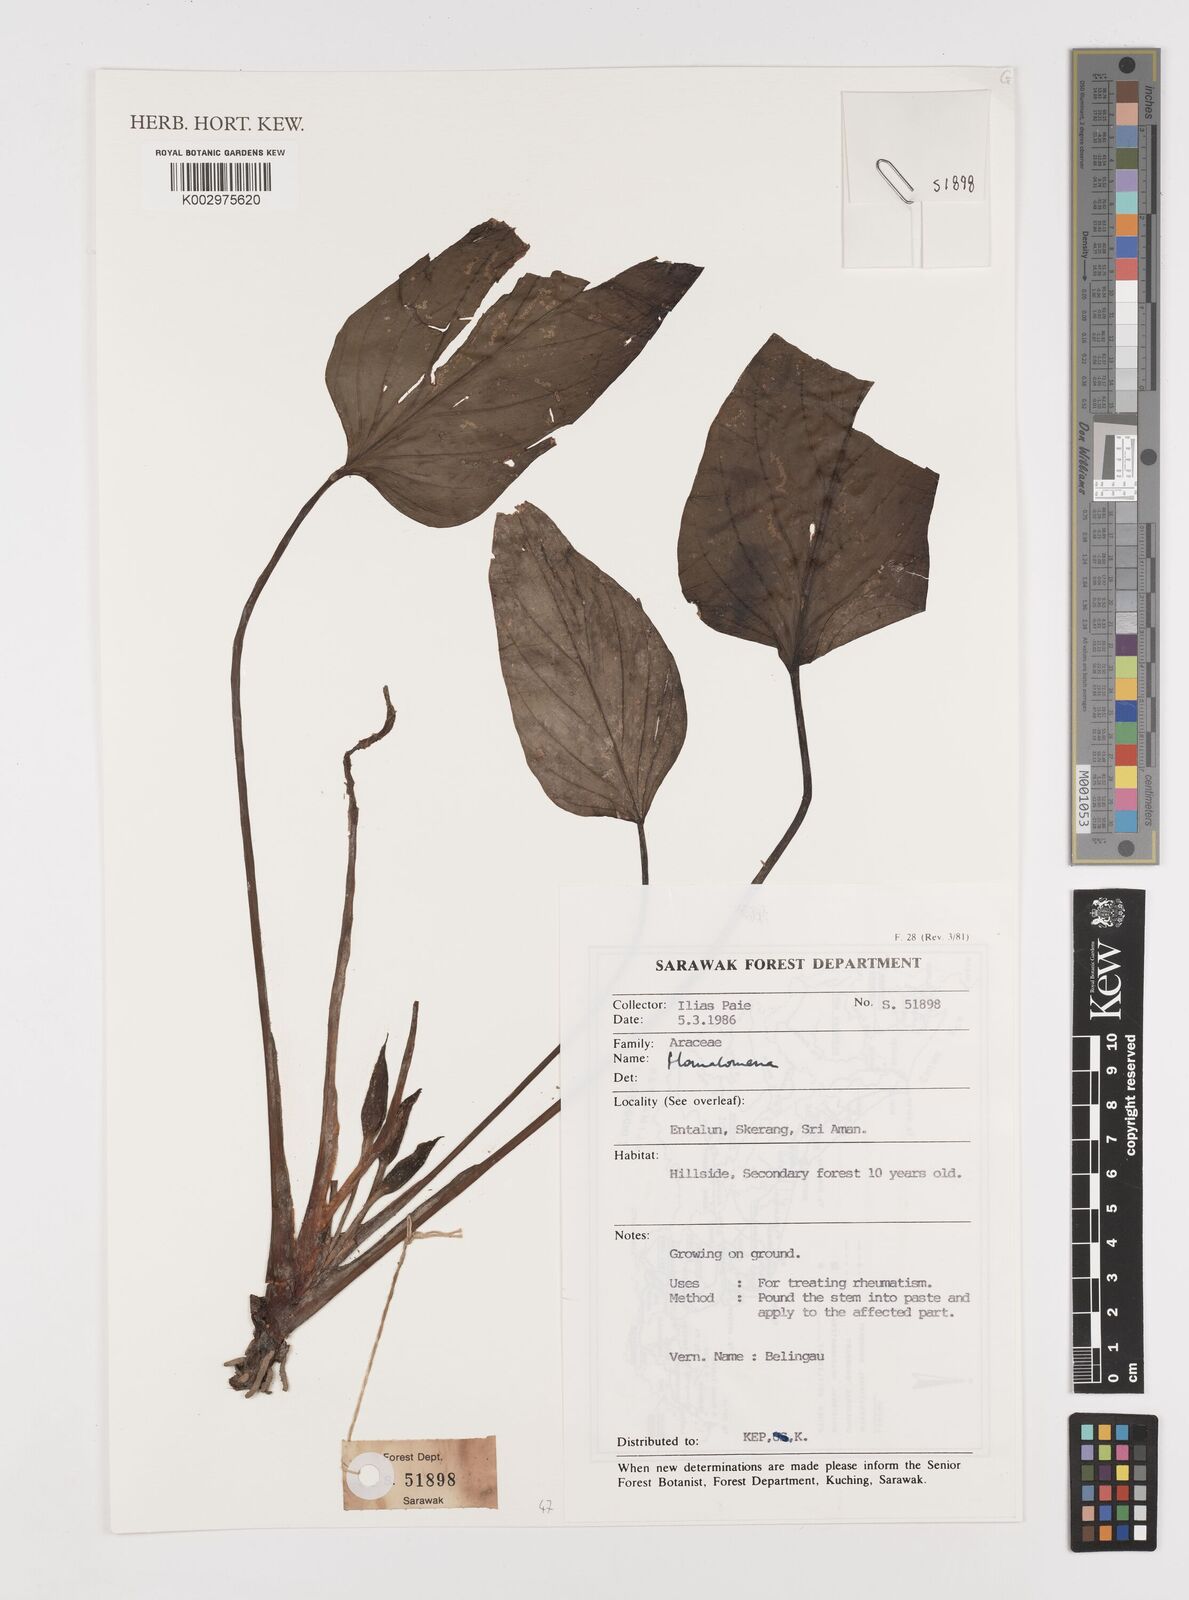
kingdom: Plantae
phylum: Tracheophyta
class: Liliopsida
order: Alismatales
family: Araceae
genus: Homalomena
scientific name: Homalomena
